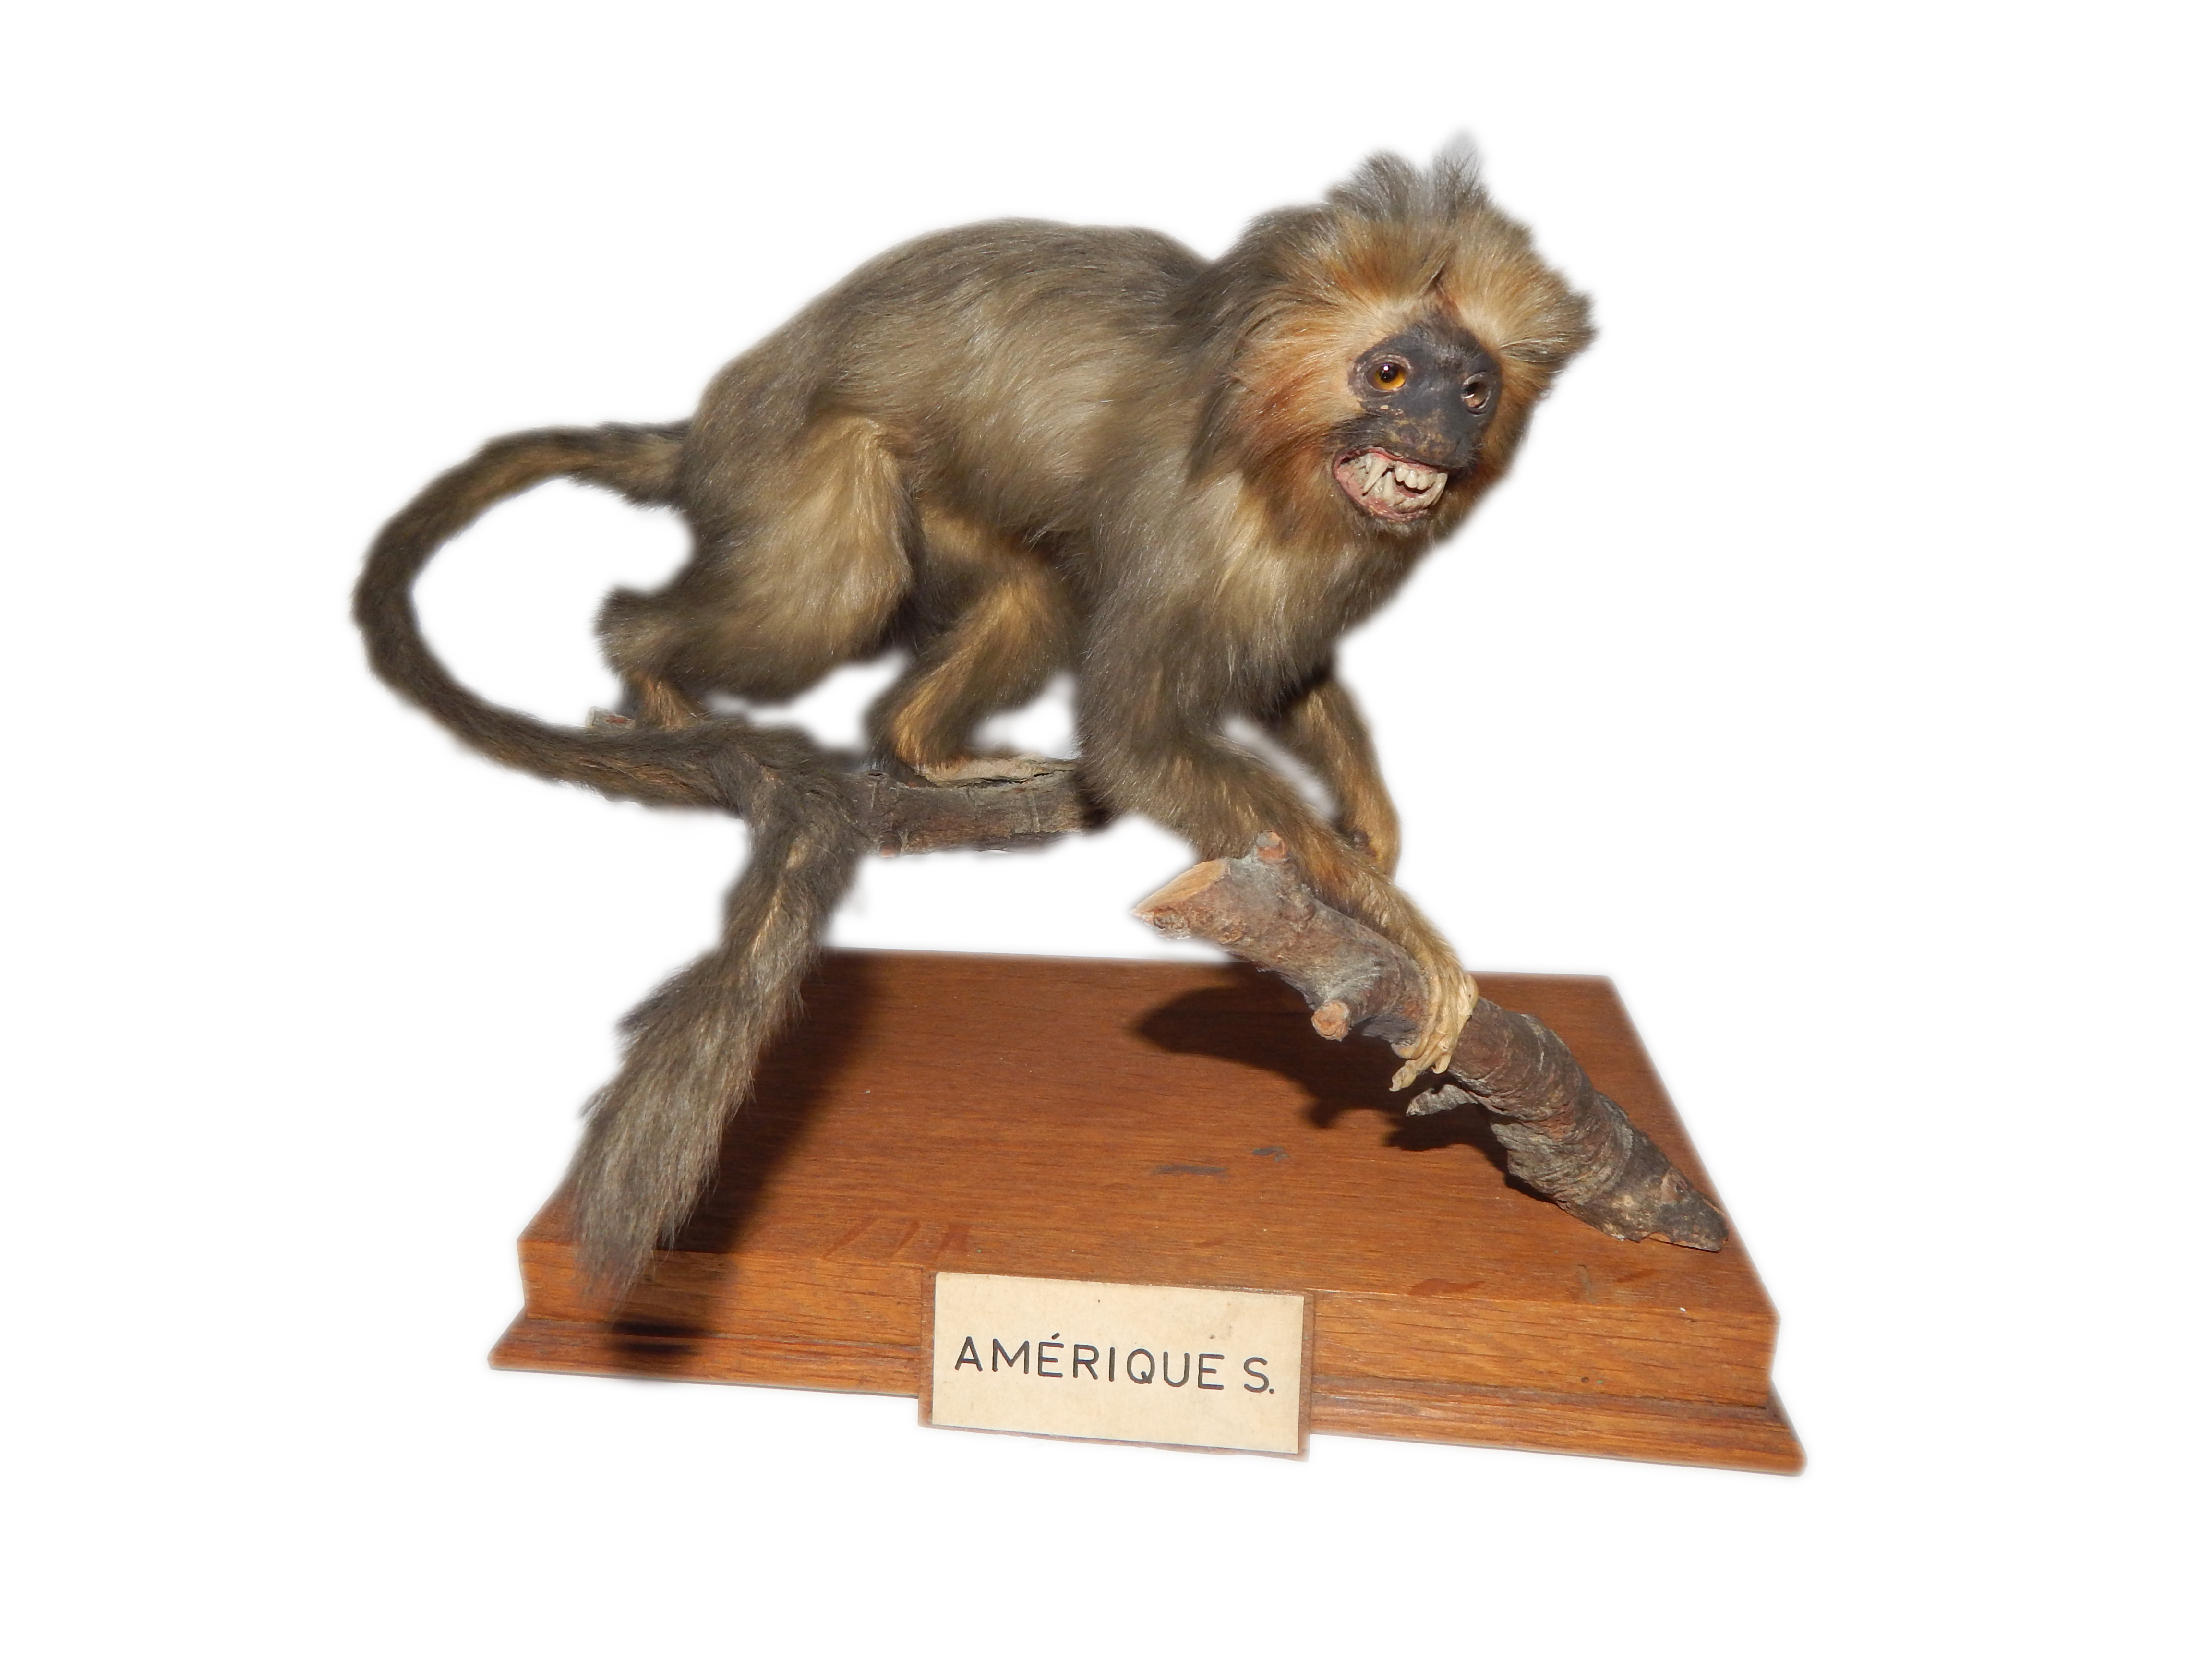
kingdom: Animalia
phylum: Chordata
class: Mammalia
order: Primates
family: Callitrichidae
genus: Leontopithecus
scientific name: Leontopithecus rosalia
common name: Golden lion tamarin
